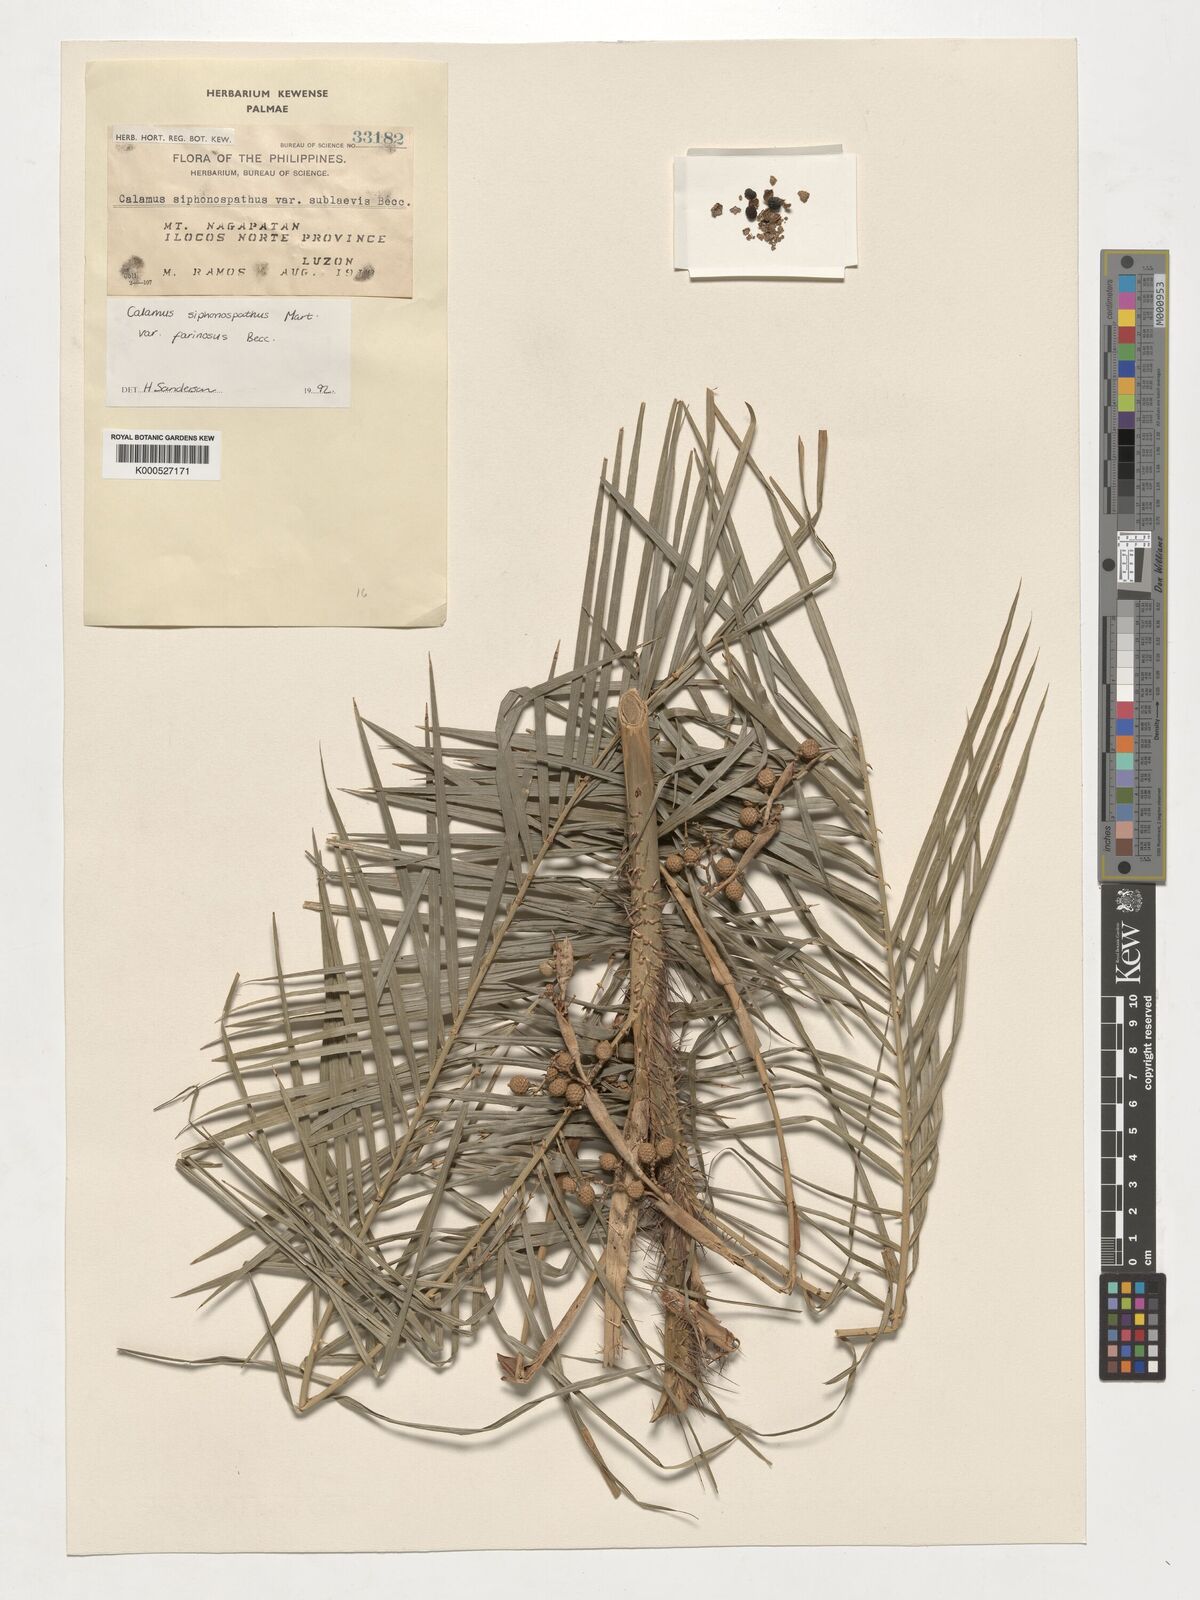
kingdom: Plantae
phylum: Tracheophyta
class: Liliopsida
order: Arecales
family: Arecaceae
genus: Calamus
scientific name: Calamus siphonospathus
